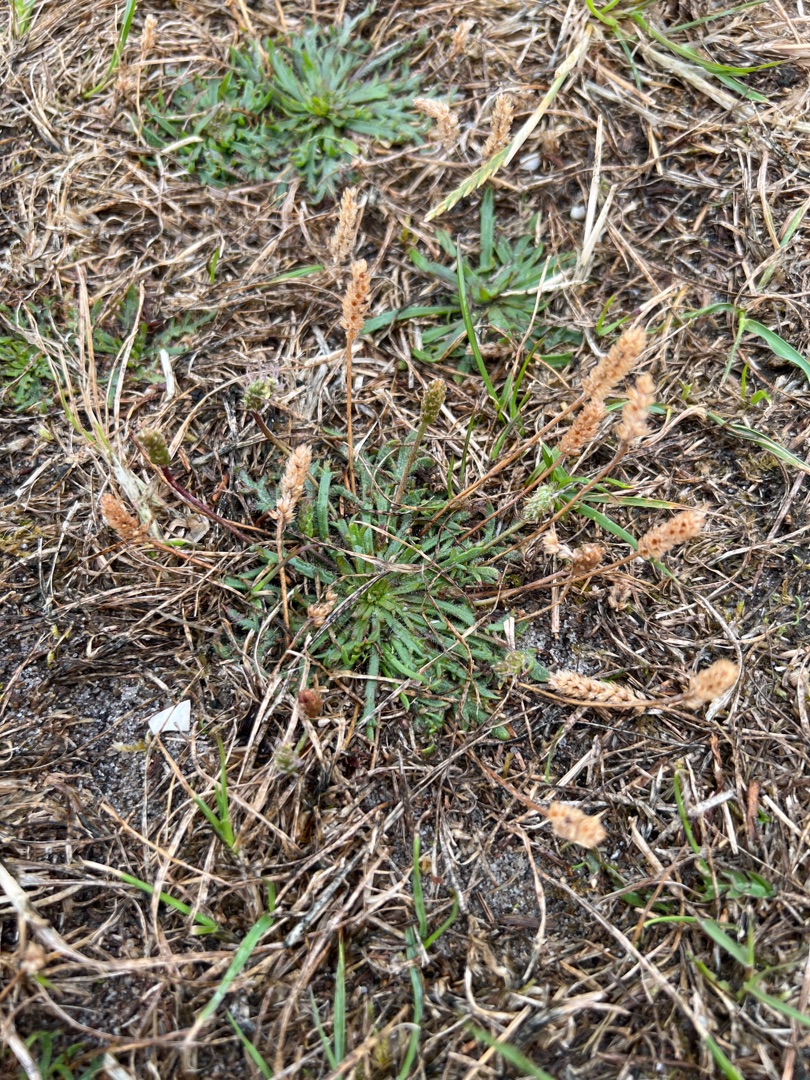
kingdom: Plantae
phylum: Tracheophyta
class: Magnoliopsida
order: Lamiales
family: Plantaginaceae
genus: Plantago
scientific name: Plantago coronopus
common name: Fliget vejbred
